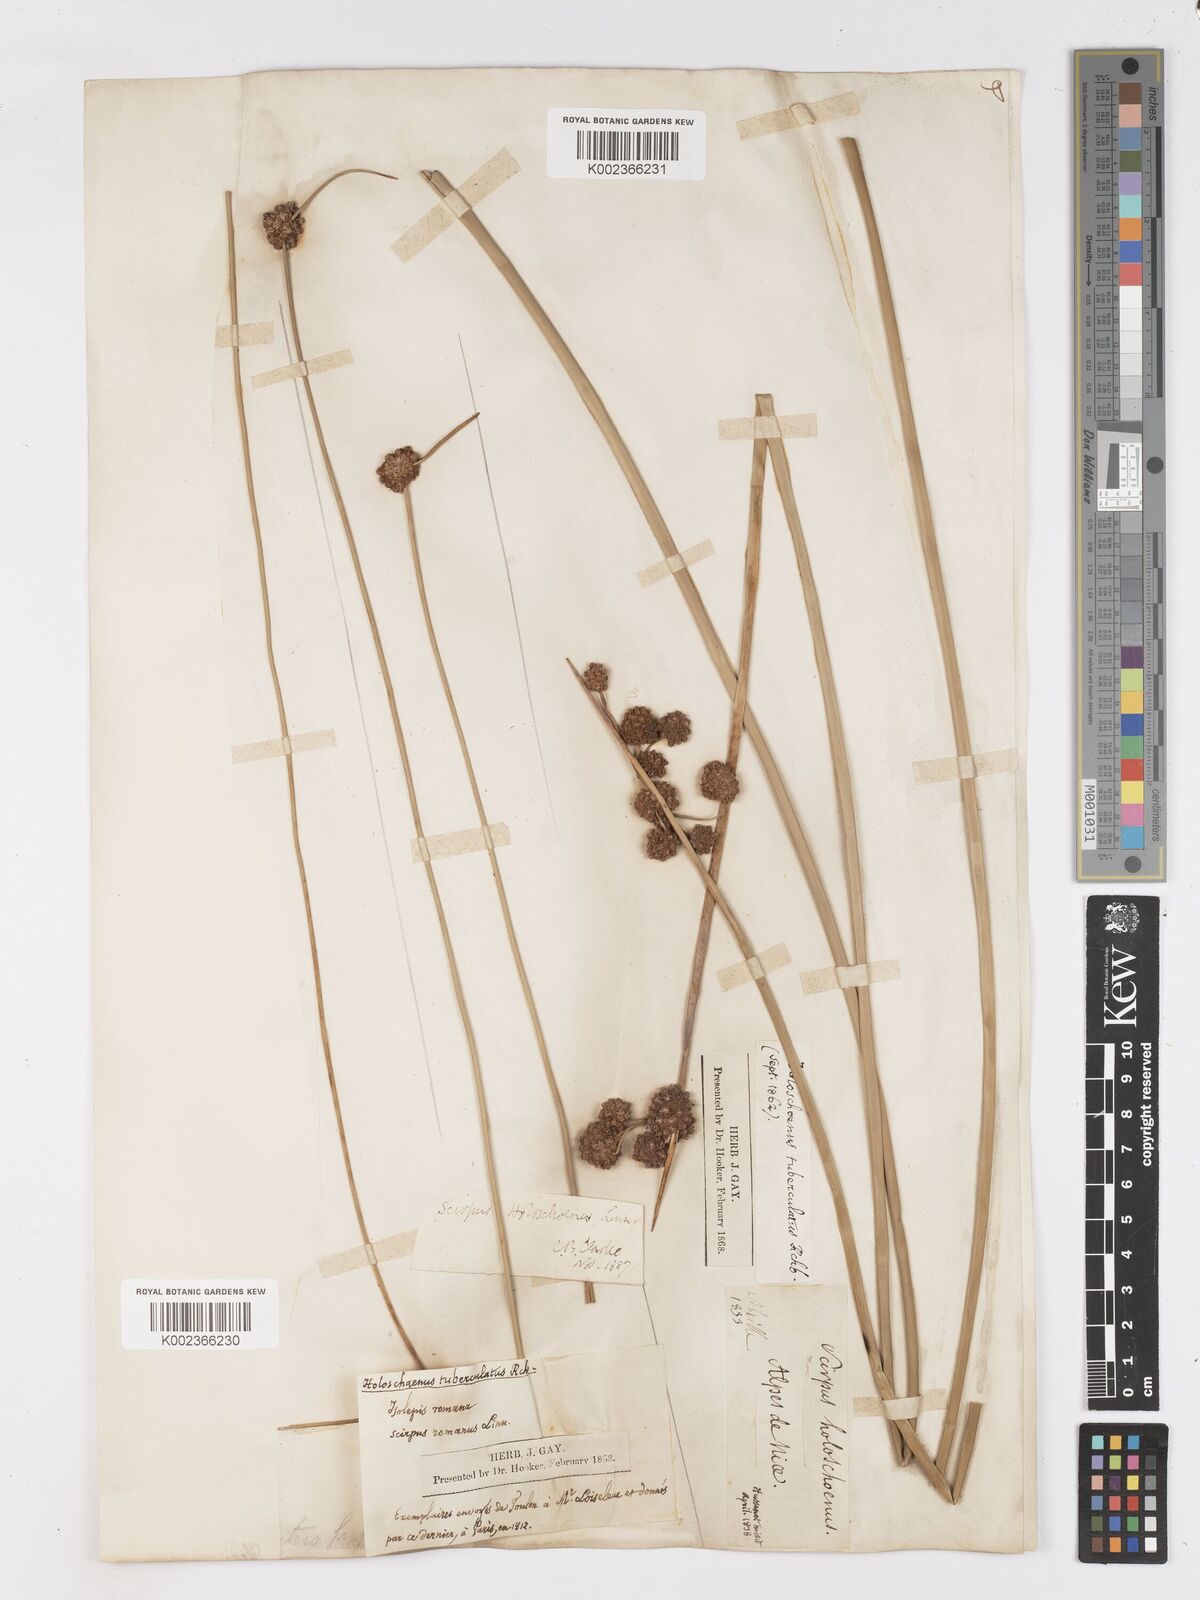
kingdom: Plantae
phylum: Tracheophyta
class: Liliopsida
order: Poales
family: Cyperaceae
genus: Scirpoides
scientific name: Scirpoides holoschoenus
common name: Round-headed club-rush
